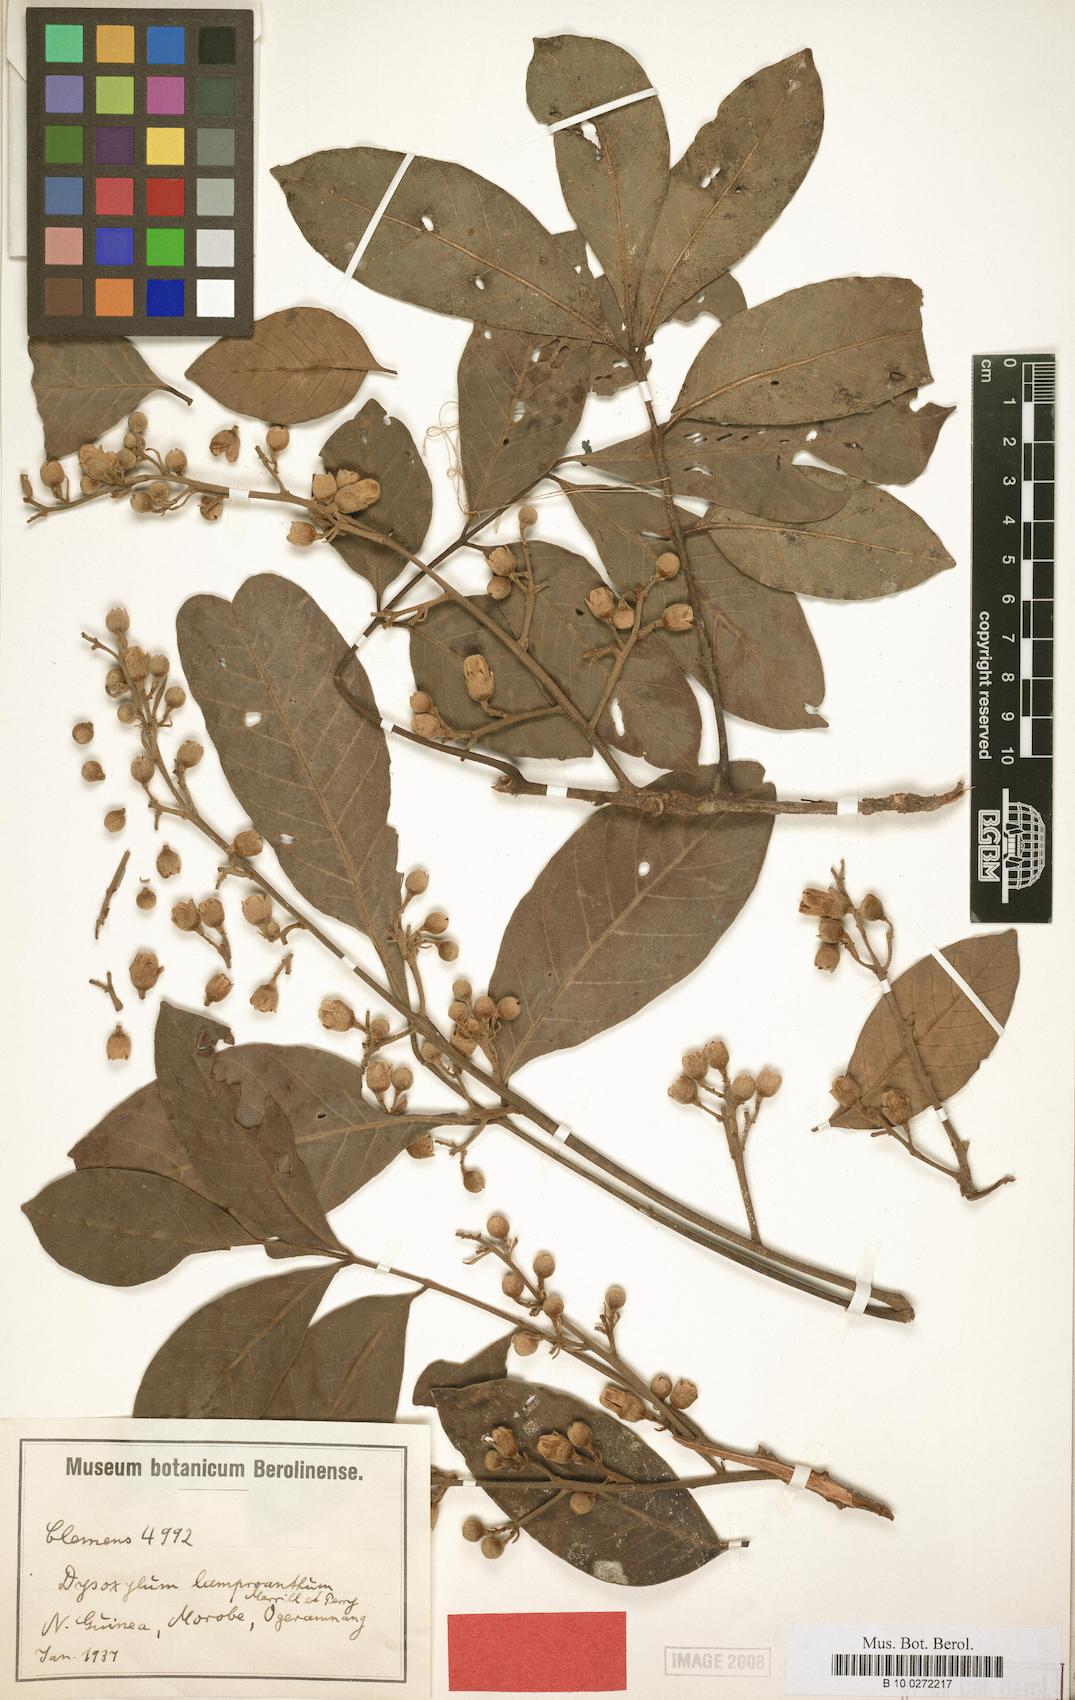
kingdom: Plantae
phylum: Tracheophyta
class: Magnoliopsida
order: Sapindales
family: Meliaceae
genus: Didymocheton
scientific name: Didymocheton setosus
